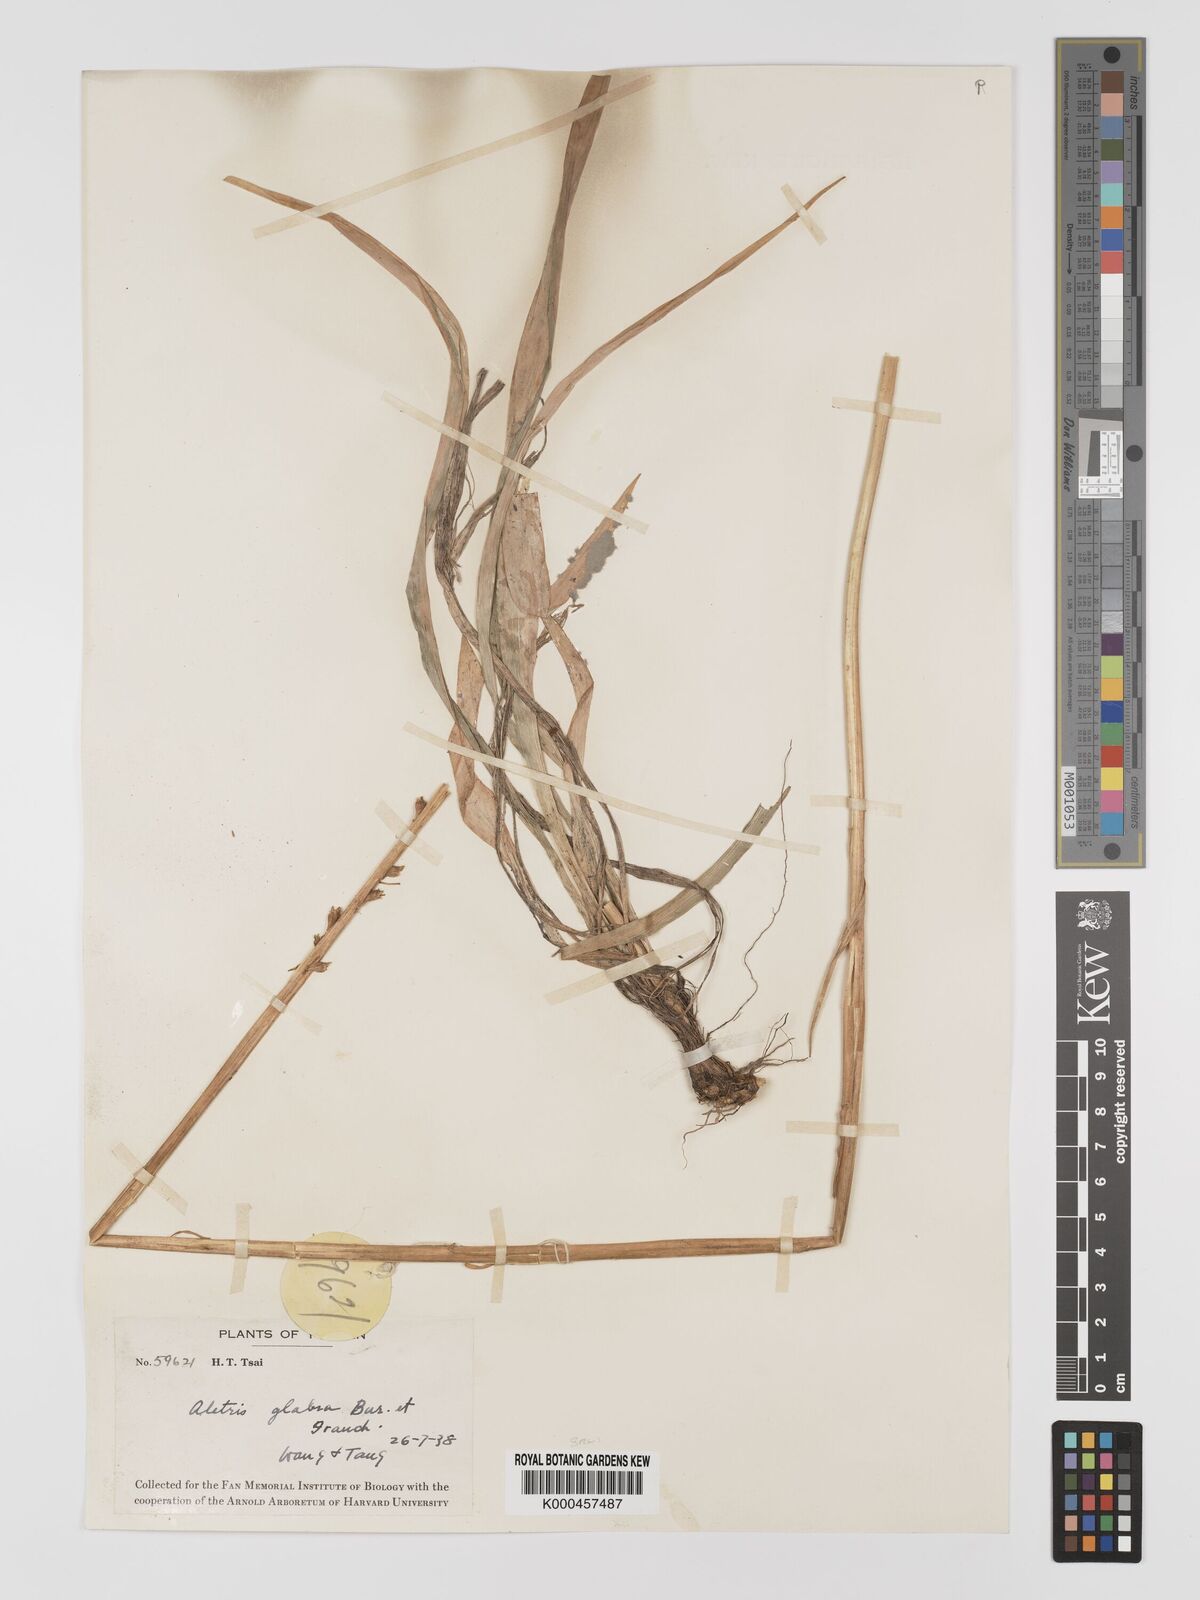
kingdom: Plantae
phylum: Tracheophyta
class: Liliopsida
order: Dioscoreales
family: Nartheciaceae
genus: Aletris
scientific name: Aletris glabra
